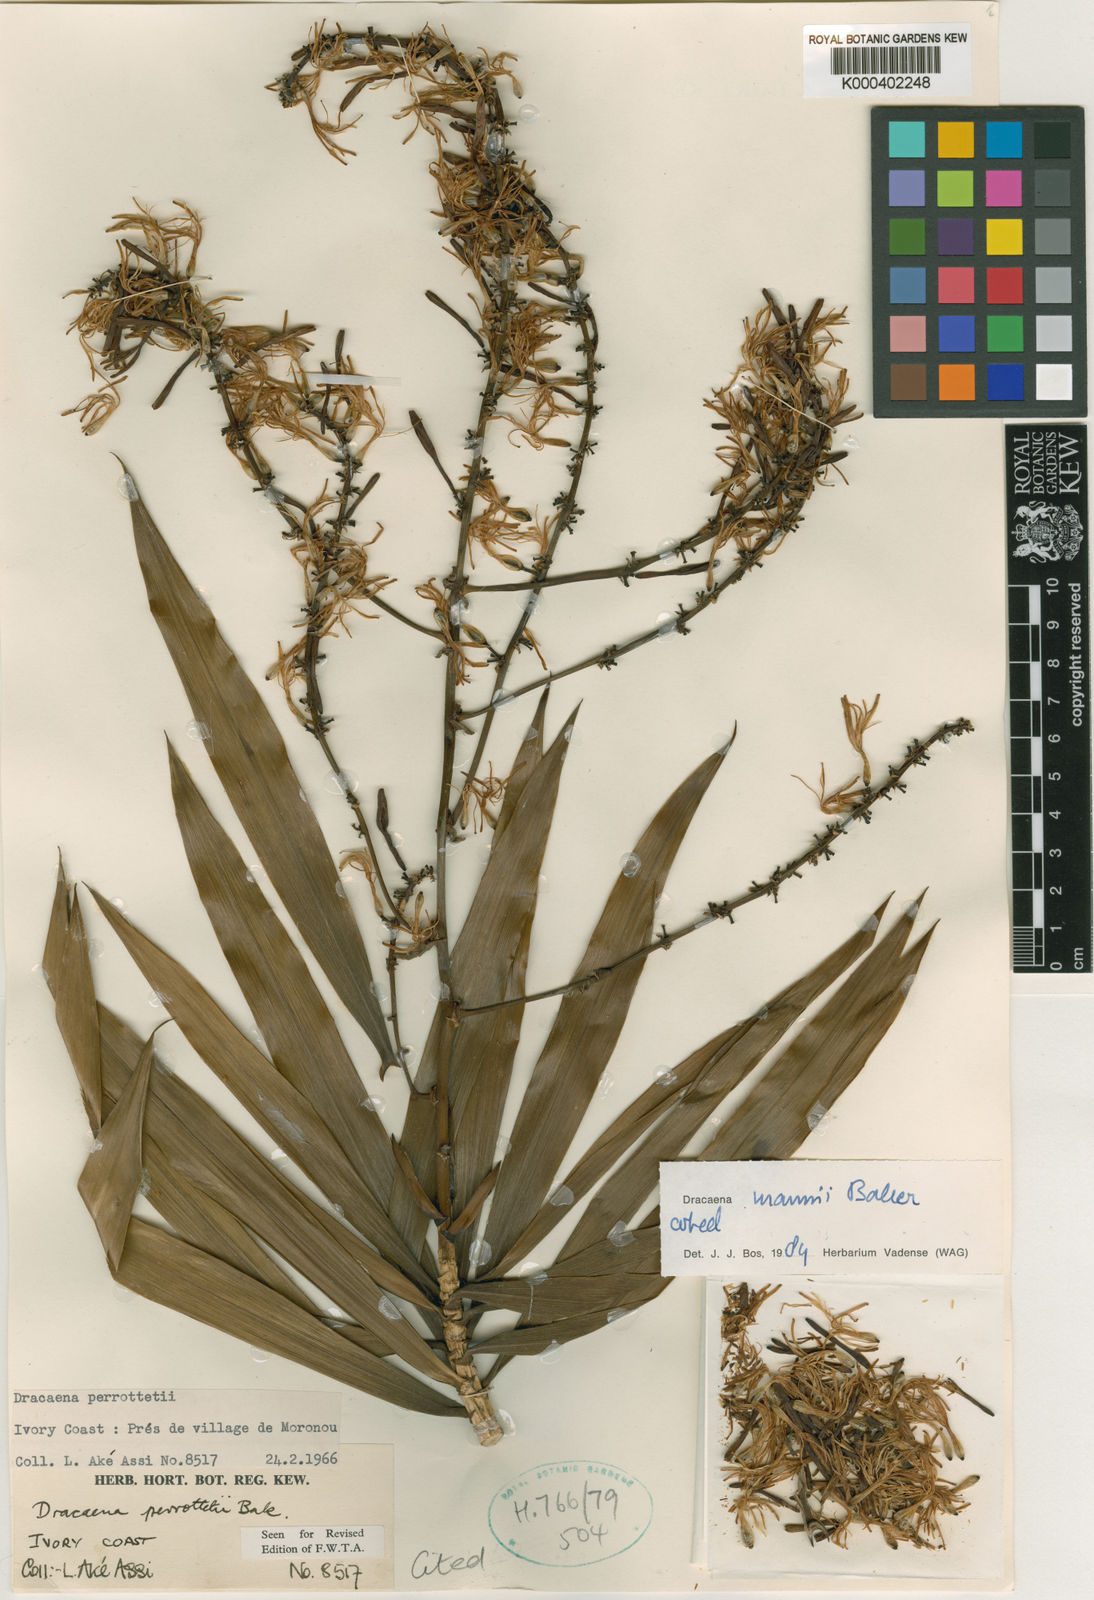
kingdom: Plantae
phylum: Tracheophyta
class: Liliopsida
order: Asparagales
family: Asparagaceae
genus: Dracaena
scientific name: Dracaena perrottetii
